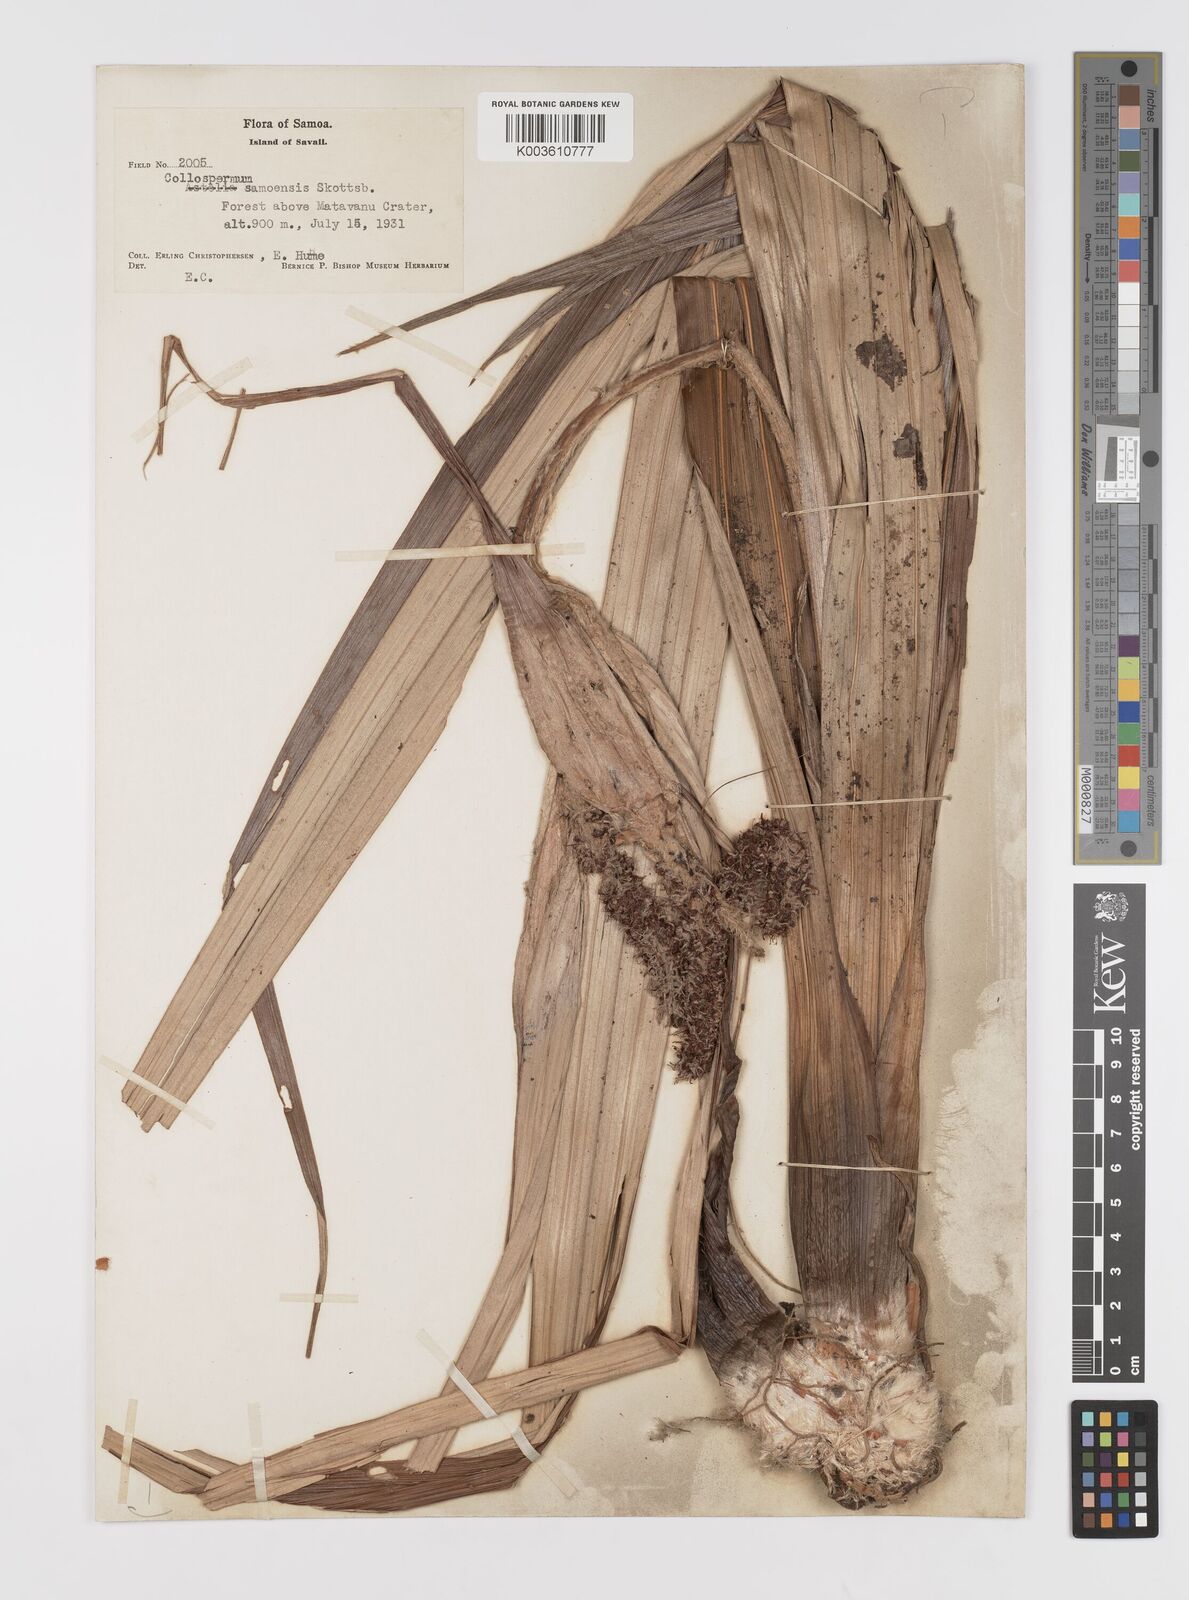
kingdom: Plantae
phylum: Tracheophyta
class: Liliopsida
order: Asparagales
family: Asteliaceae
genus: Astelia
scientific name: Astelia samoense
